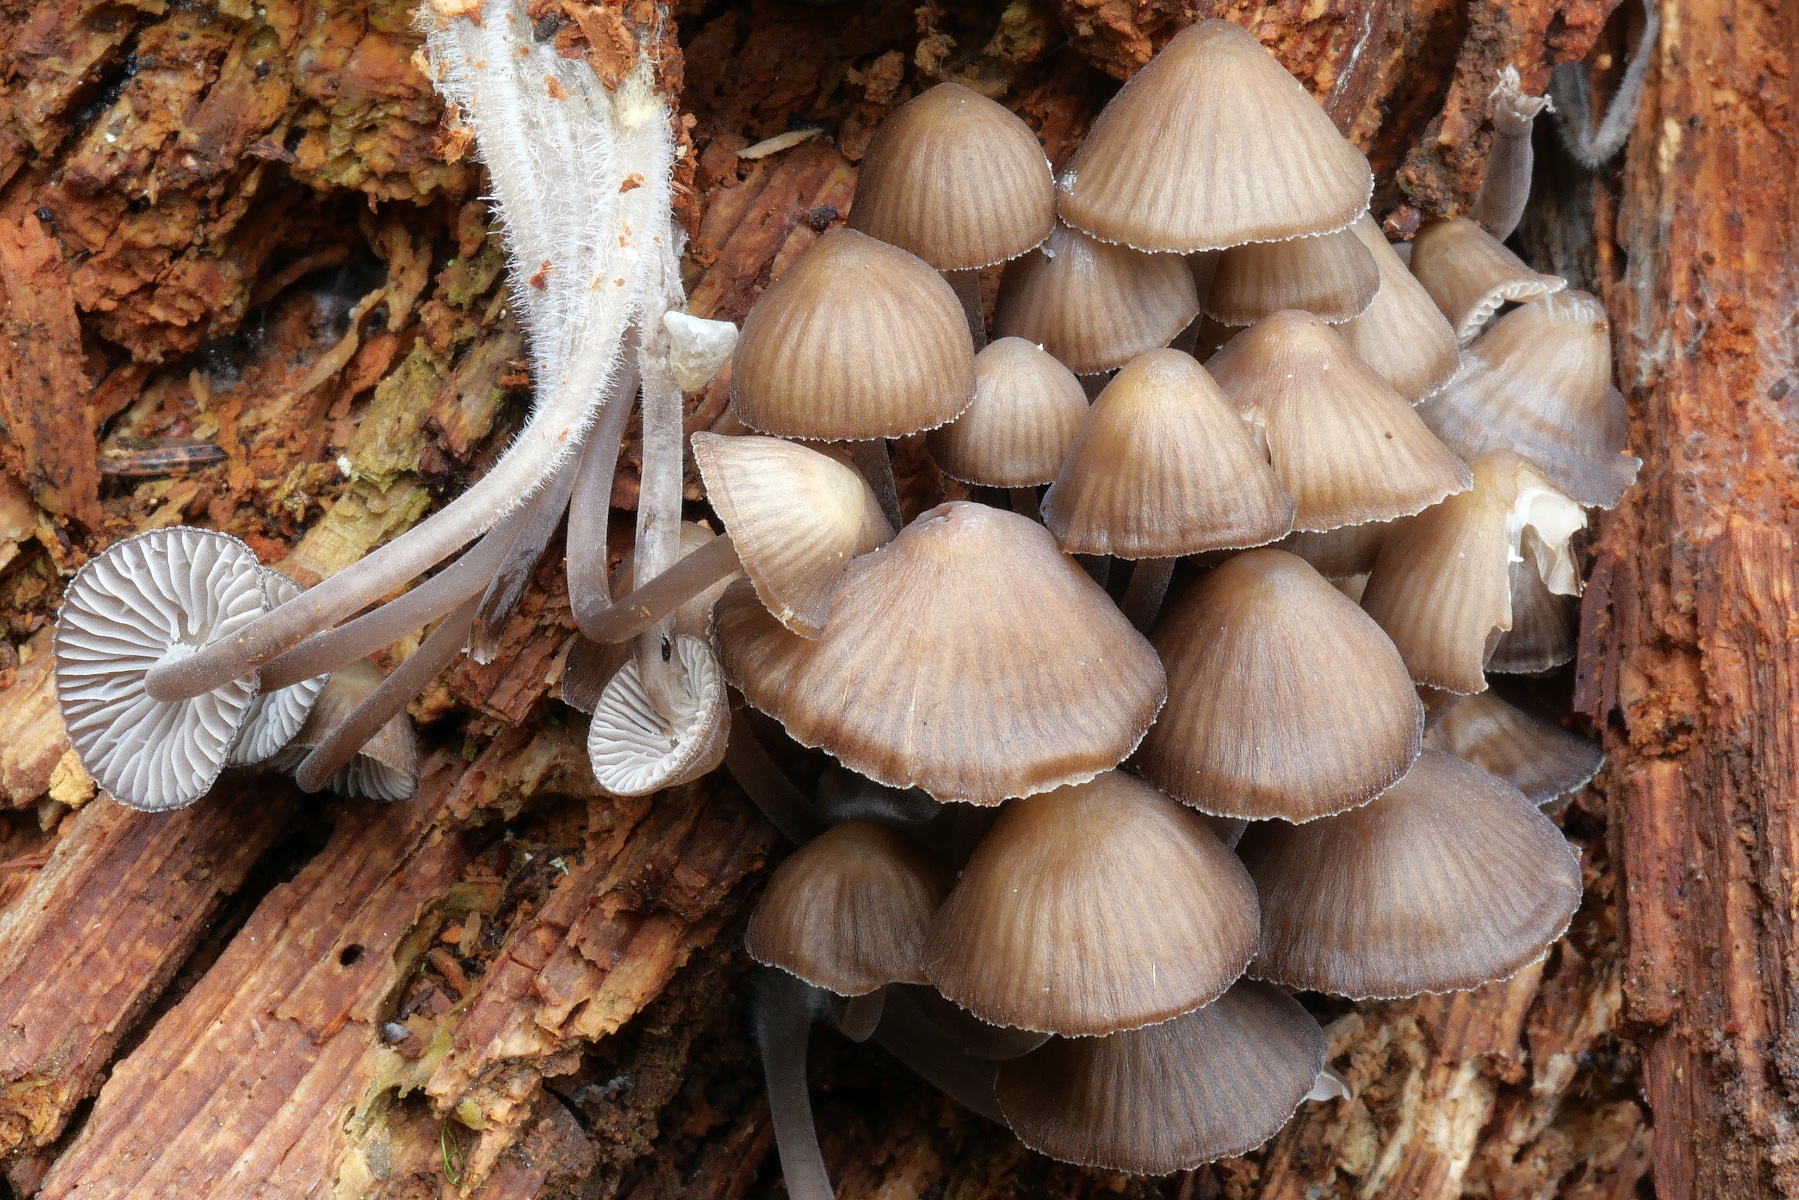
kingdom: Fungi
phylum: Basidiomycota
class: Agaricomycetes
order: Agaricales
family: Mycenaceae
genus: Mycena
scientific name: Mycena stipata
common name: stinkende huesvamp
